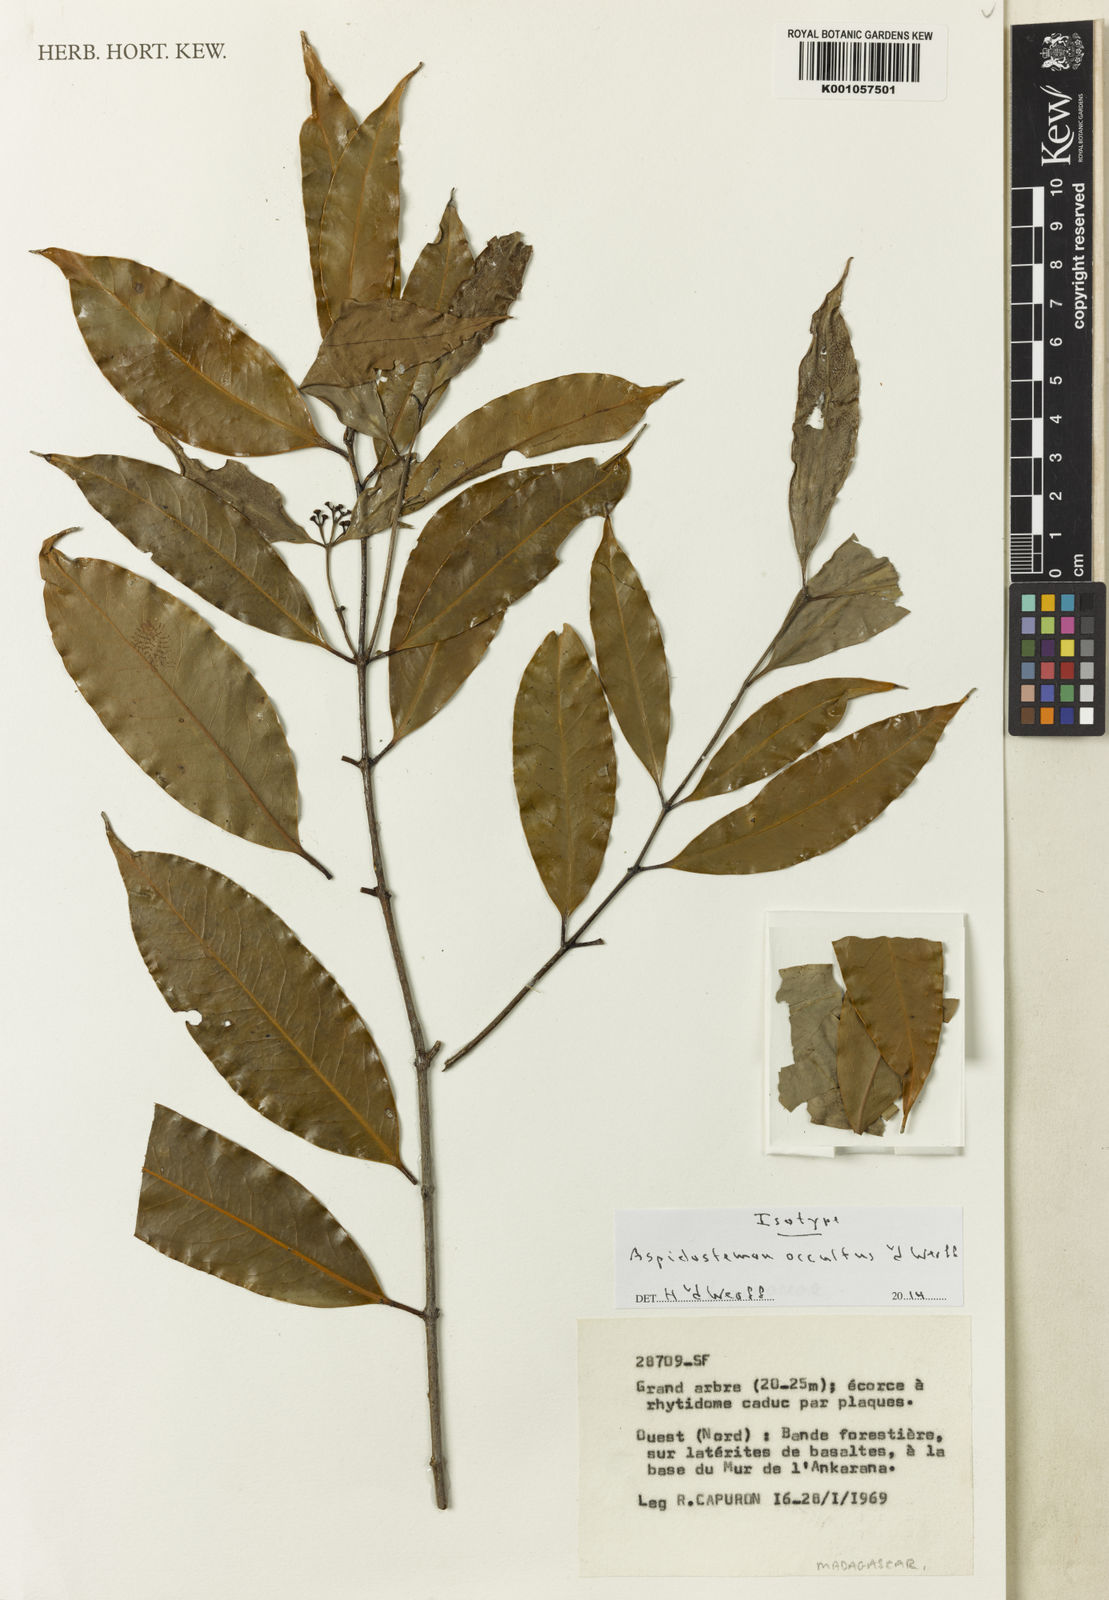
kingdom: Plantae
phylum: Tracheophyta
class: Magnoliopsida
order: Laurales
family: Lauraceae
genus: Aspidostemon
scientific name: Aspidostemon occultus
